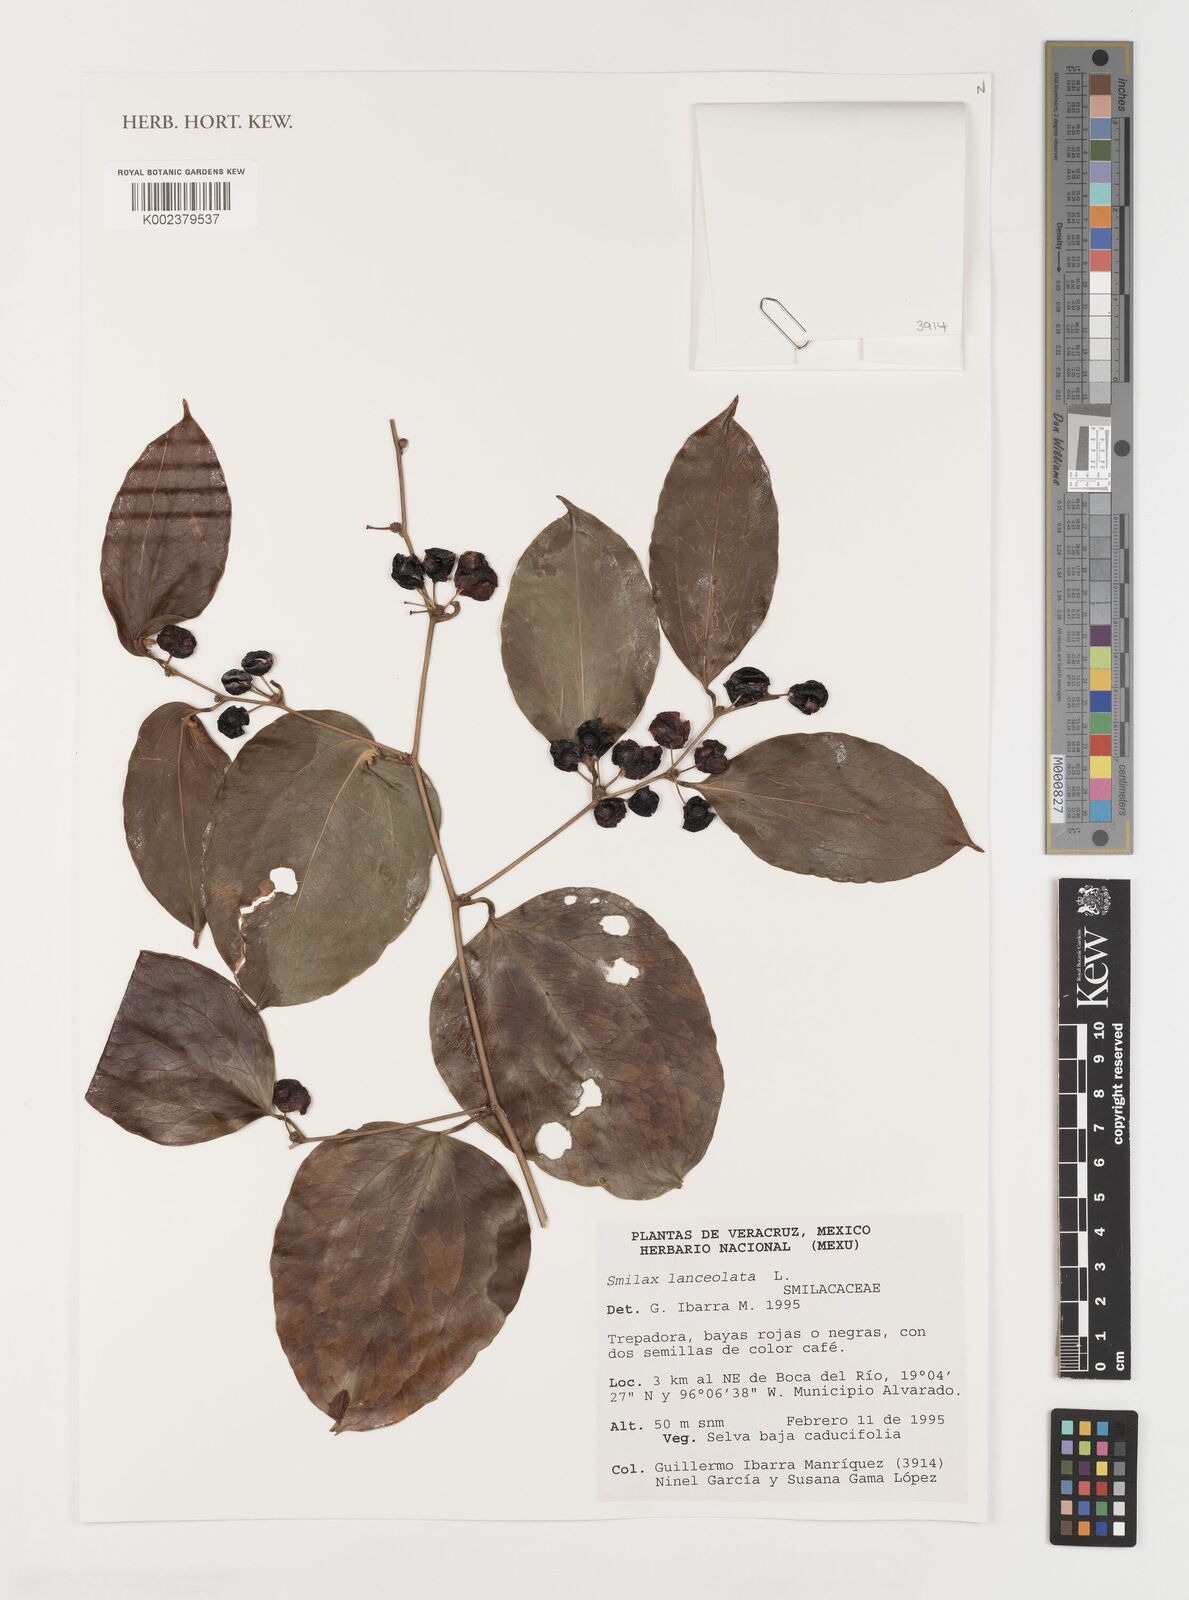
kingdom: Plantae
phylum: Tracheophyta
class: Liliopsida
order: Liliales
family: Smilacaceae
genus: Smilax
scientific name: Smilax laurifolia
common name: Bamboovine
